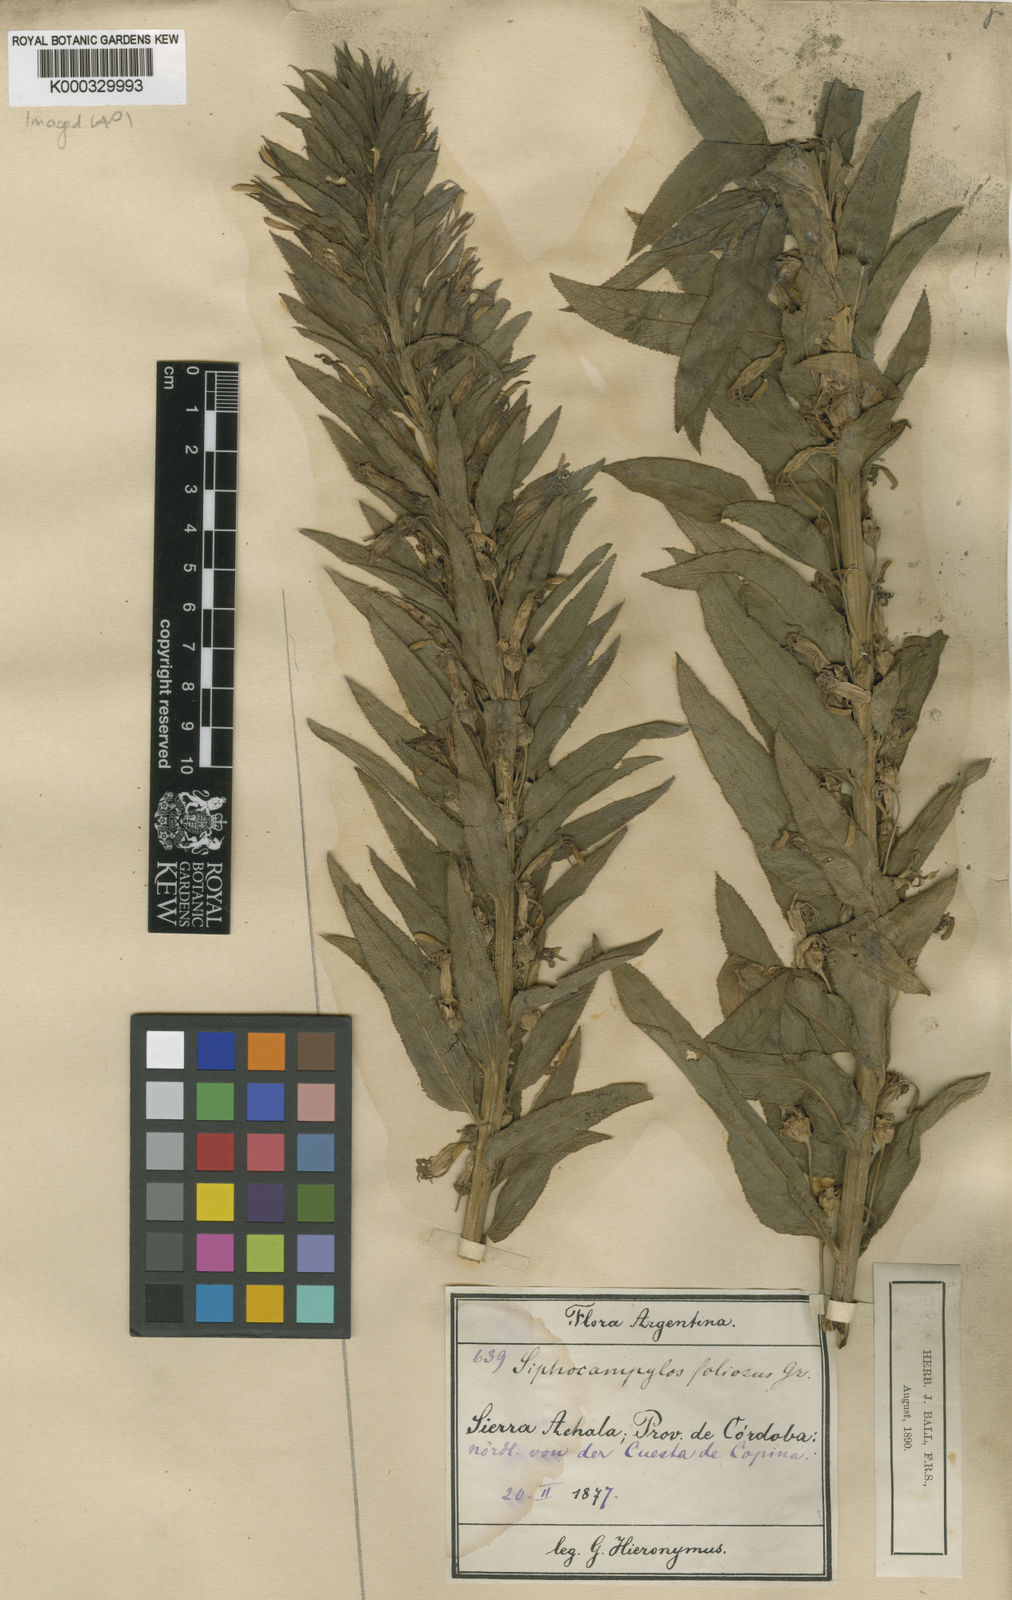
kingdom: Plantae
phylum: Tracheophyta
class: Magnoliopsida
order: Asterales
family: Campanulaceae
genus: Siphocampylus
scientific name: Siphocampylus foliosus
